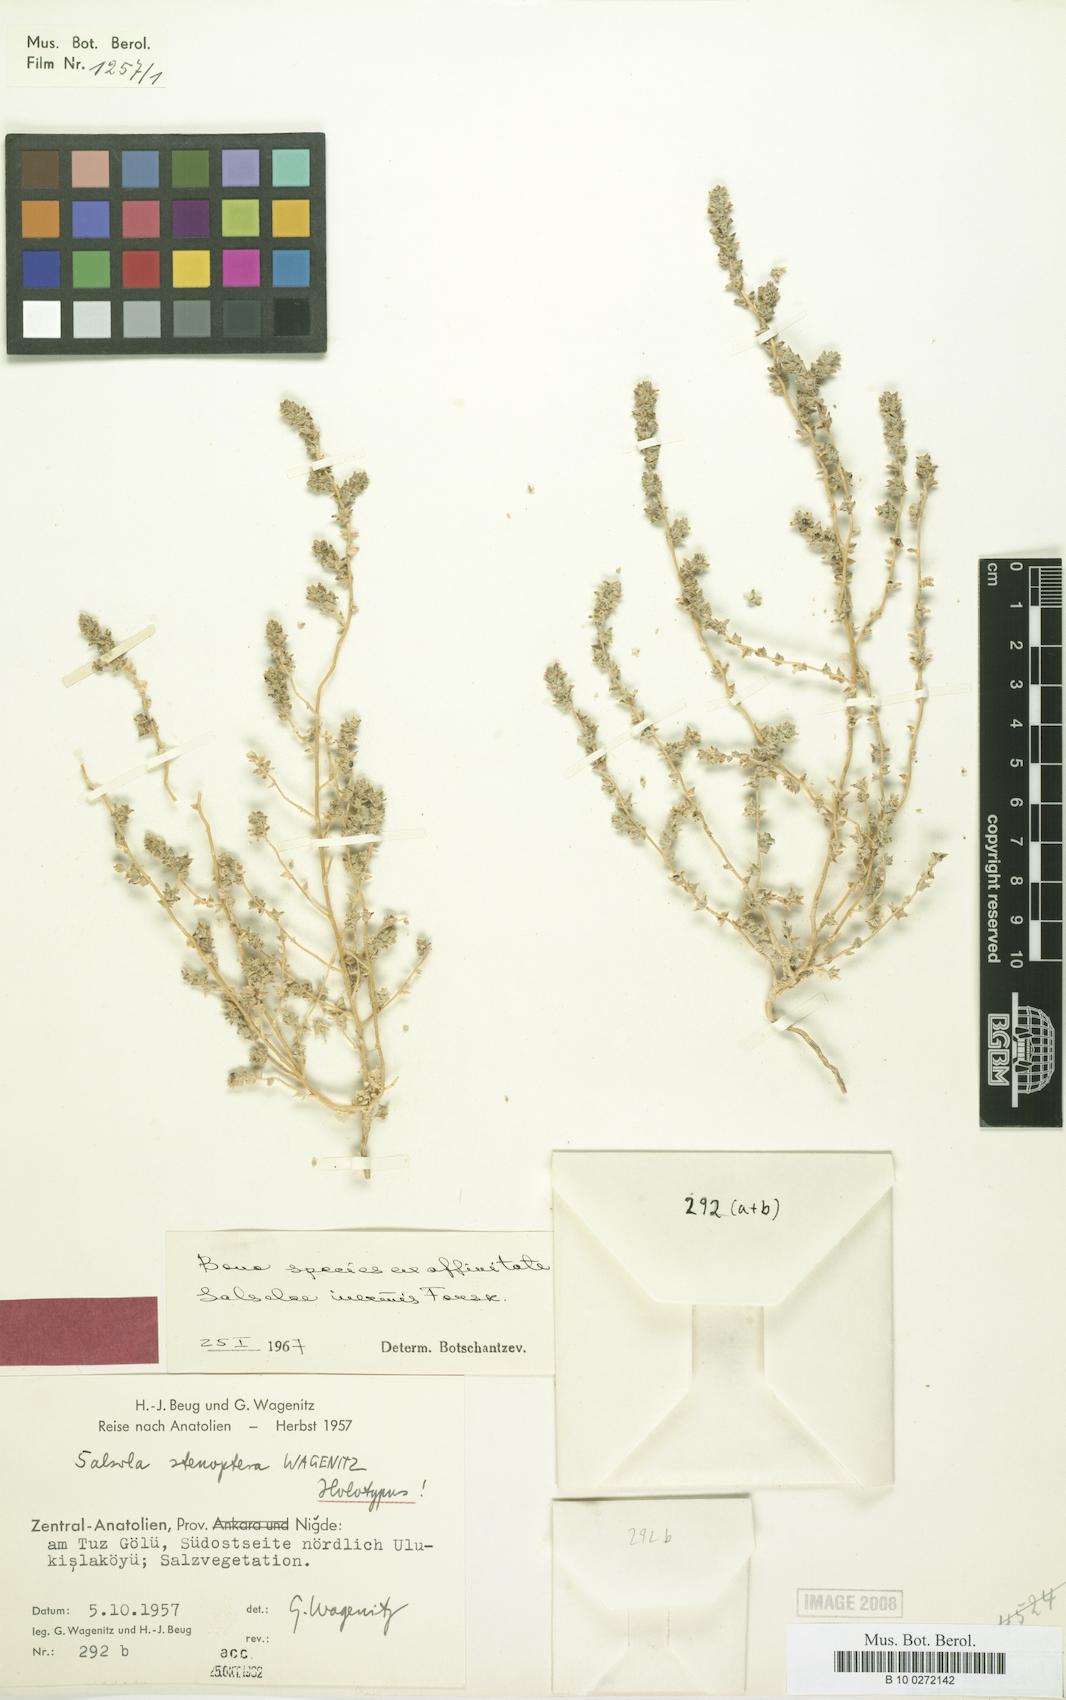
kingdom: Plantae
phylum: Tracheophyta
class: Magnoliopsida
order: Caryophyllales
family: Amaranthaceae
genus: Caroxylon
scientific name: Caroxylon stenopterum
